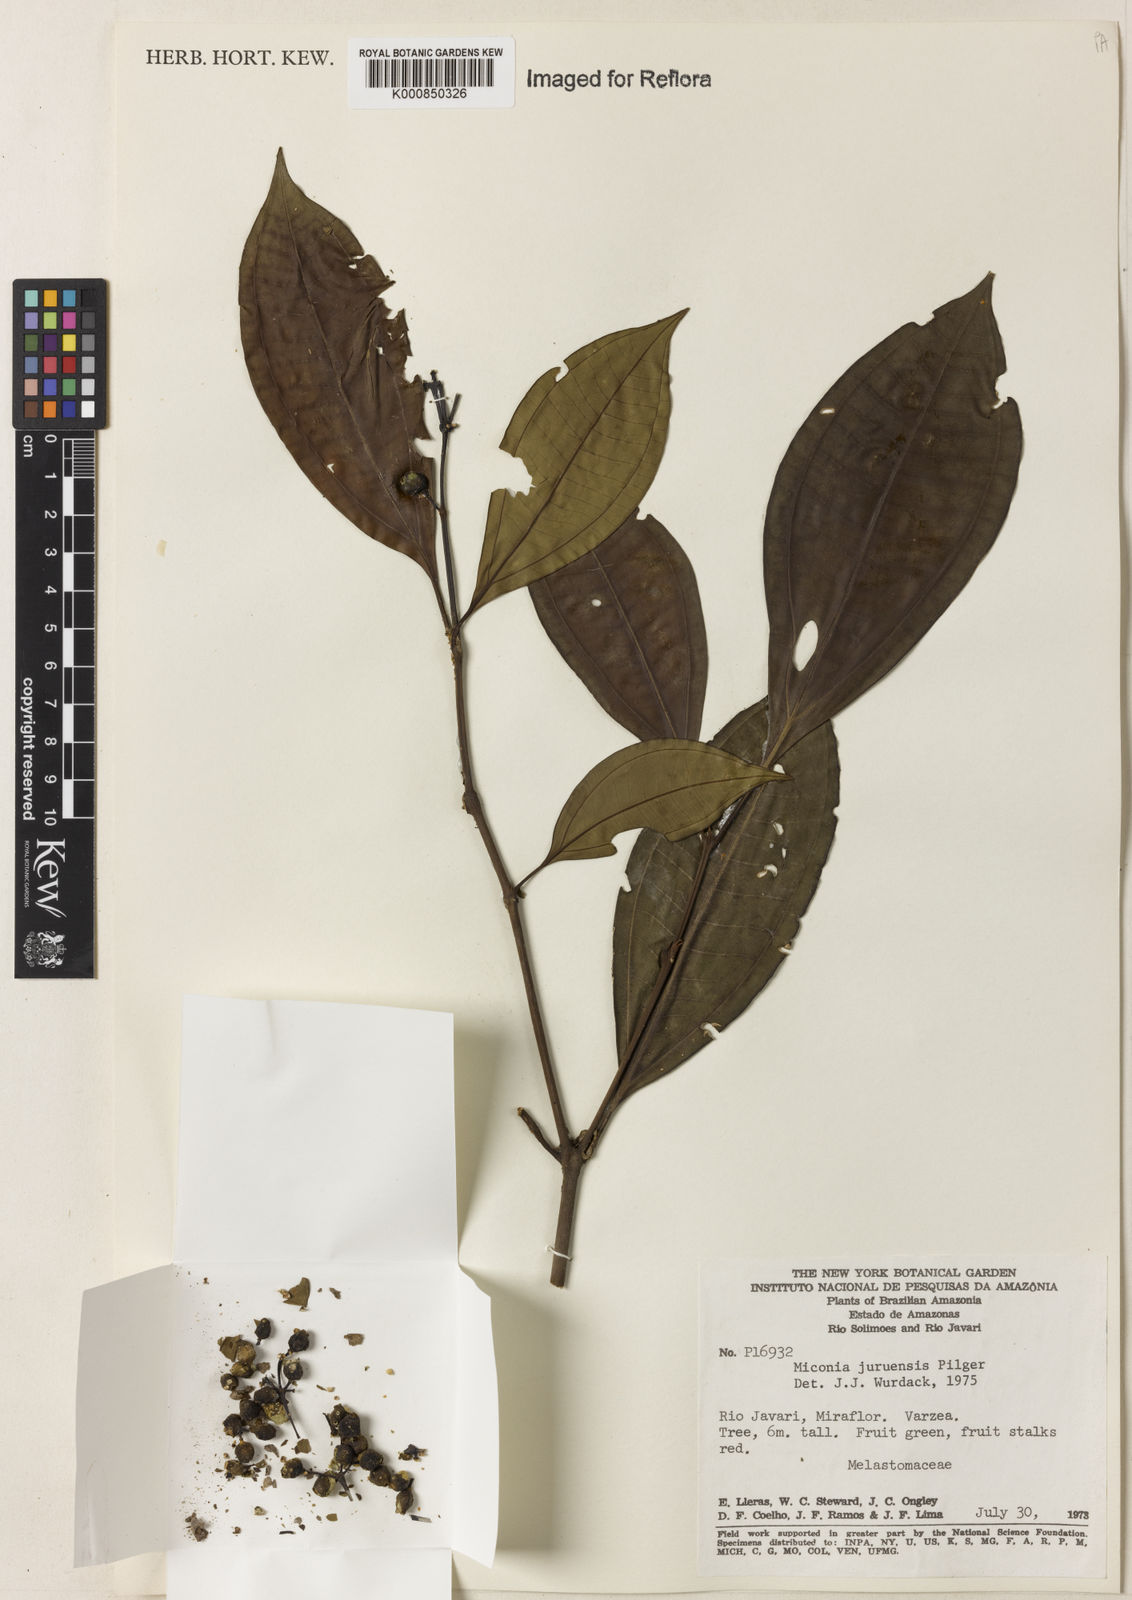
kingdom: Plantae
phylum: Tracheophyta
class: Magnoliopsida
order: Myrtales
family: Melastomataceae
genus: Miconia
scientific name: Miconia juruensis
